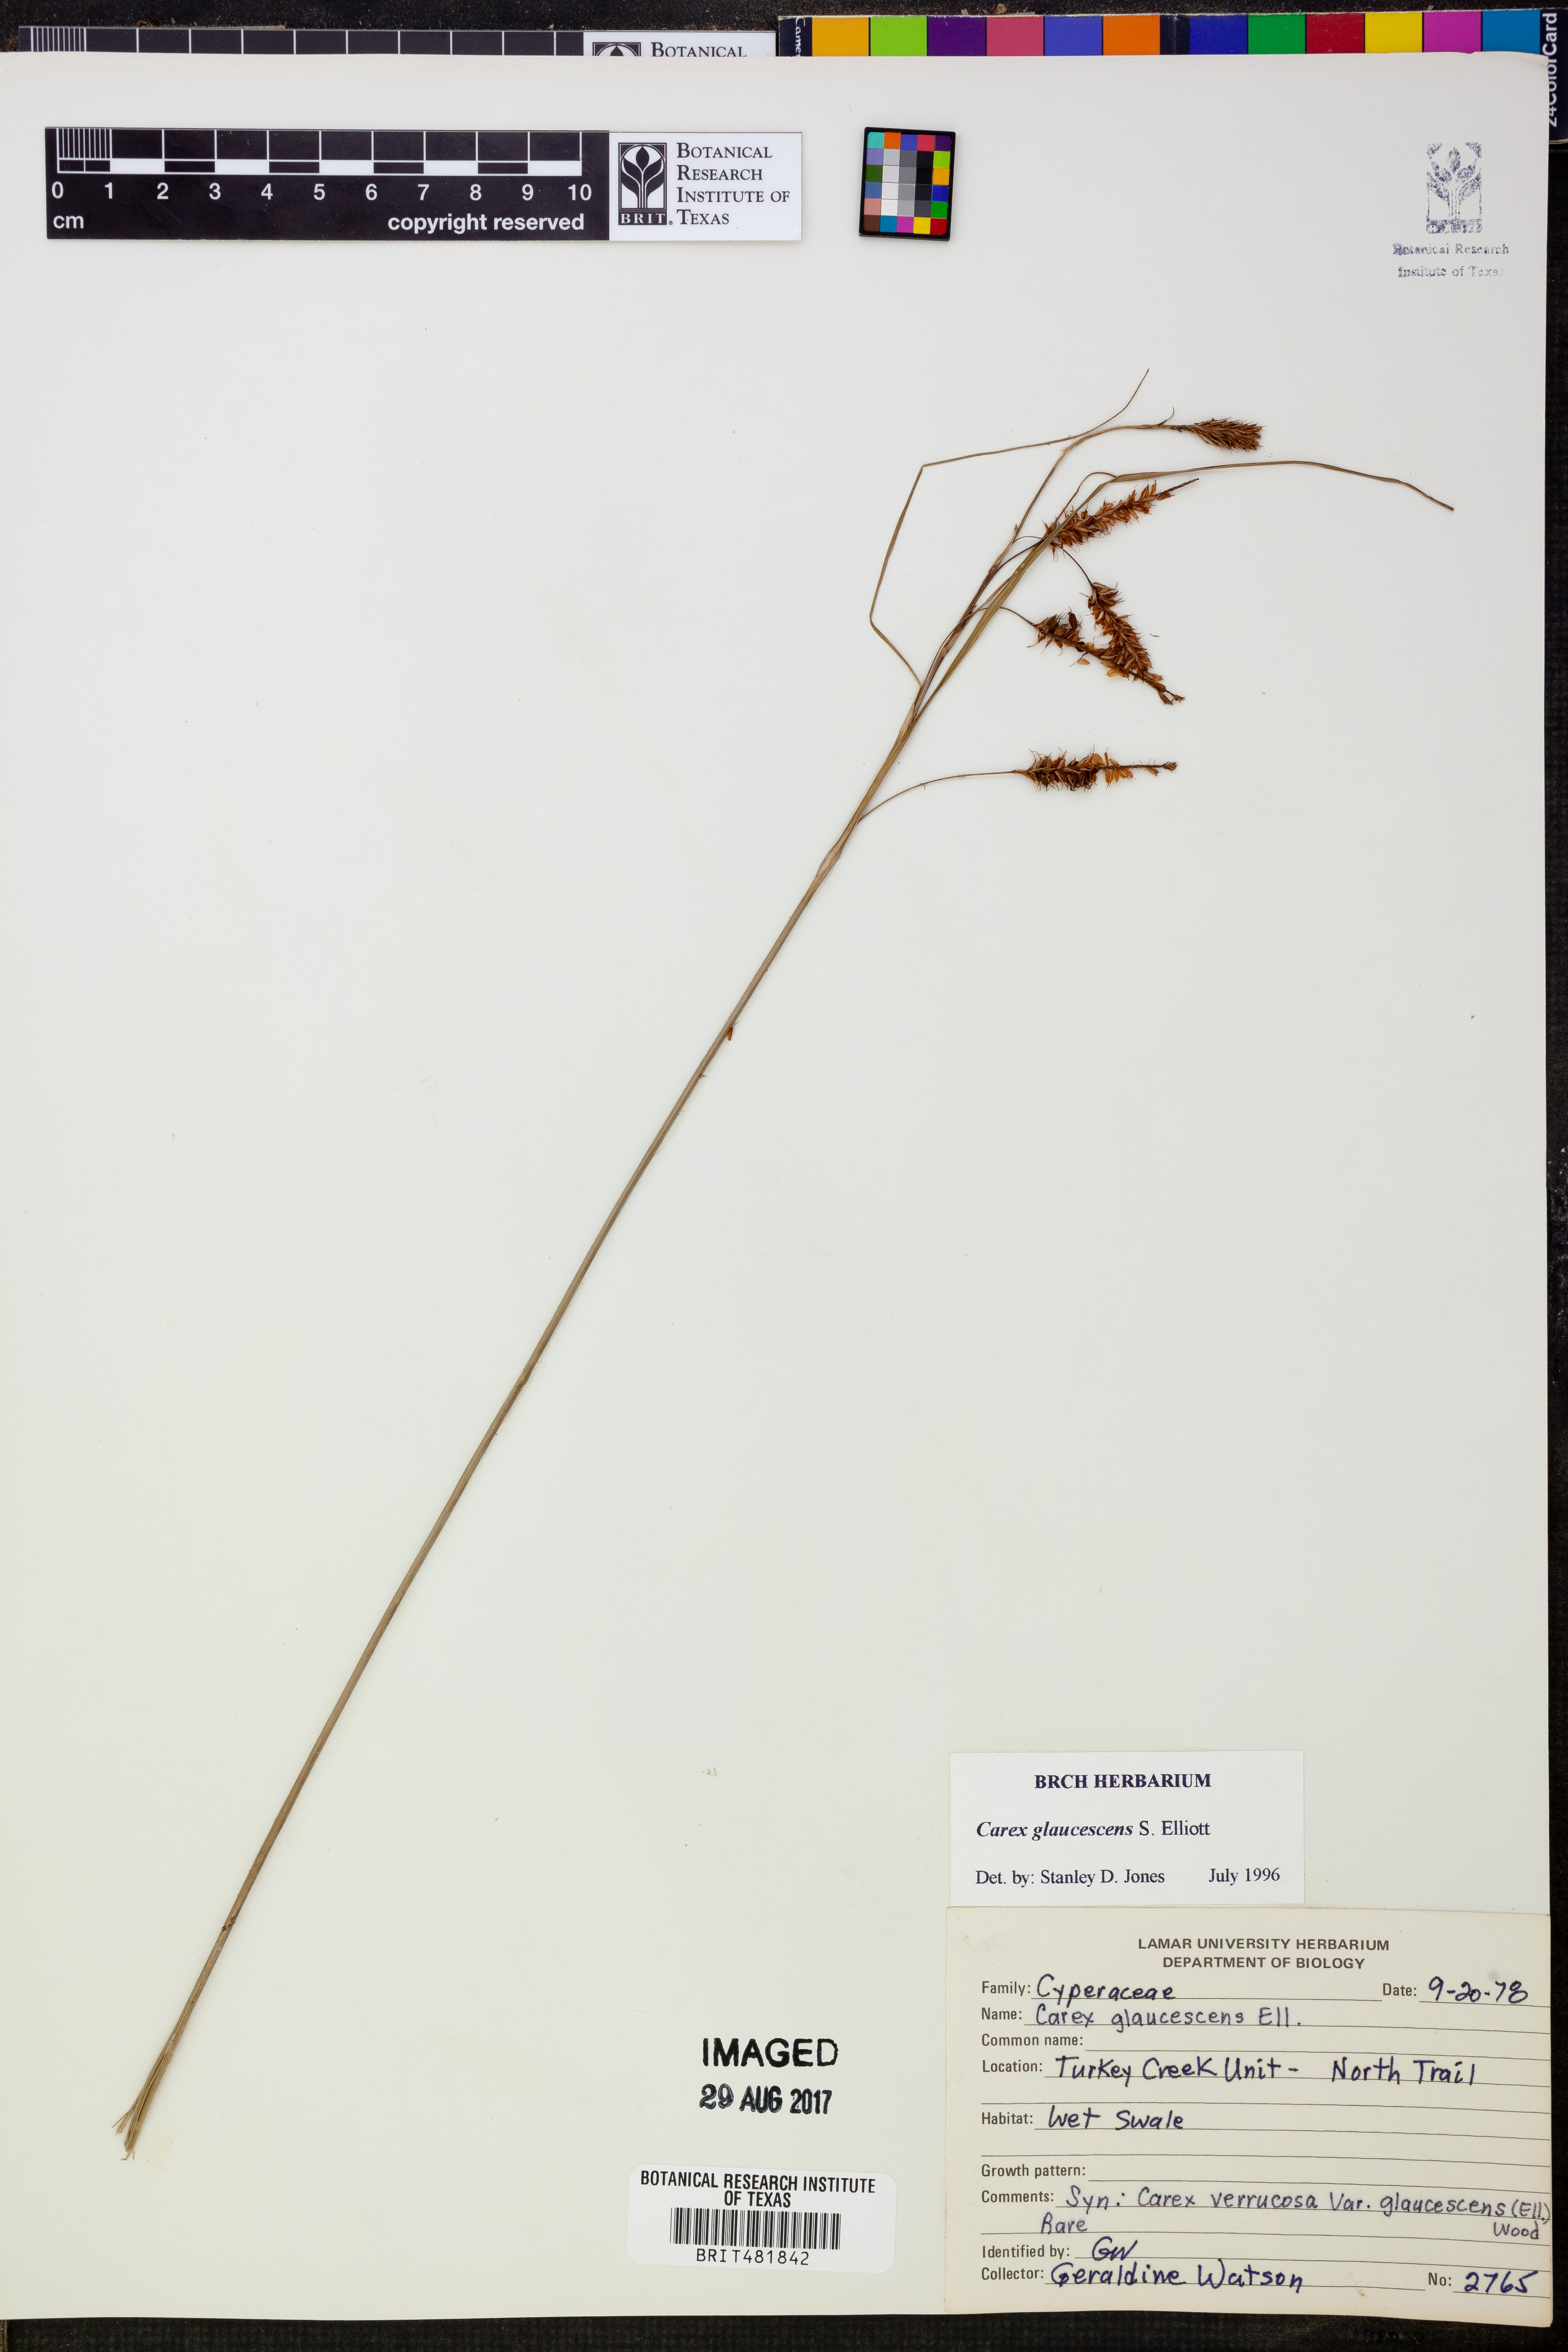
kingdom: Plantae
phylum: Tracheophyta
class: Liliopsida
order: Poales
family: Cyperaceae
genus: Carex
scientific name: Carex glaucescens
